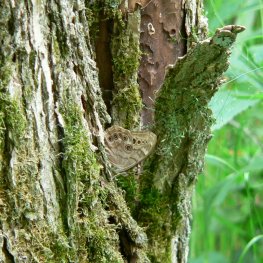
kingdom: Animalia
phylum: Arthropoda
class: Insecta
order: Lepidoptera
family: Nymphalidae
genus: Lethe
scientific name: Lethe anthedon
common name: Northern Pearly-Eye
